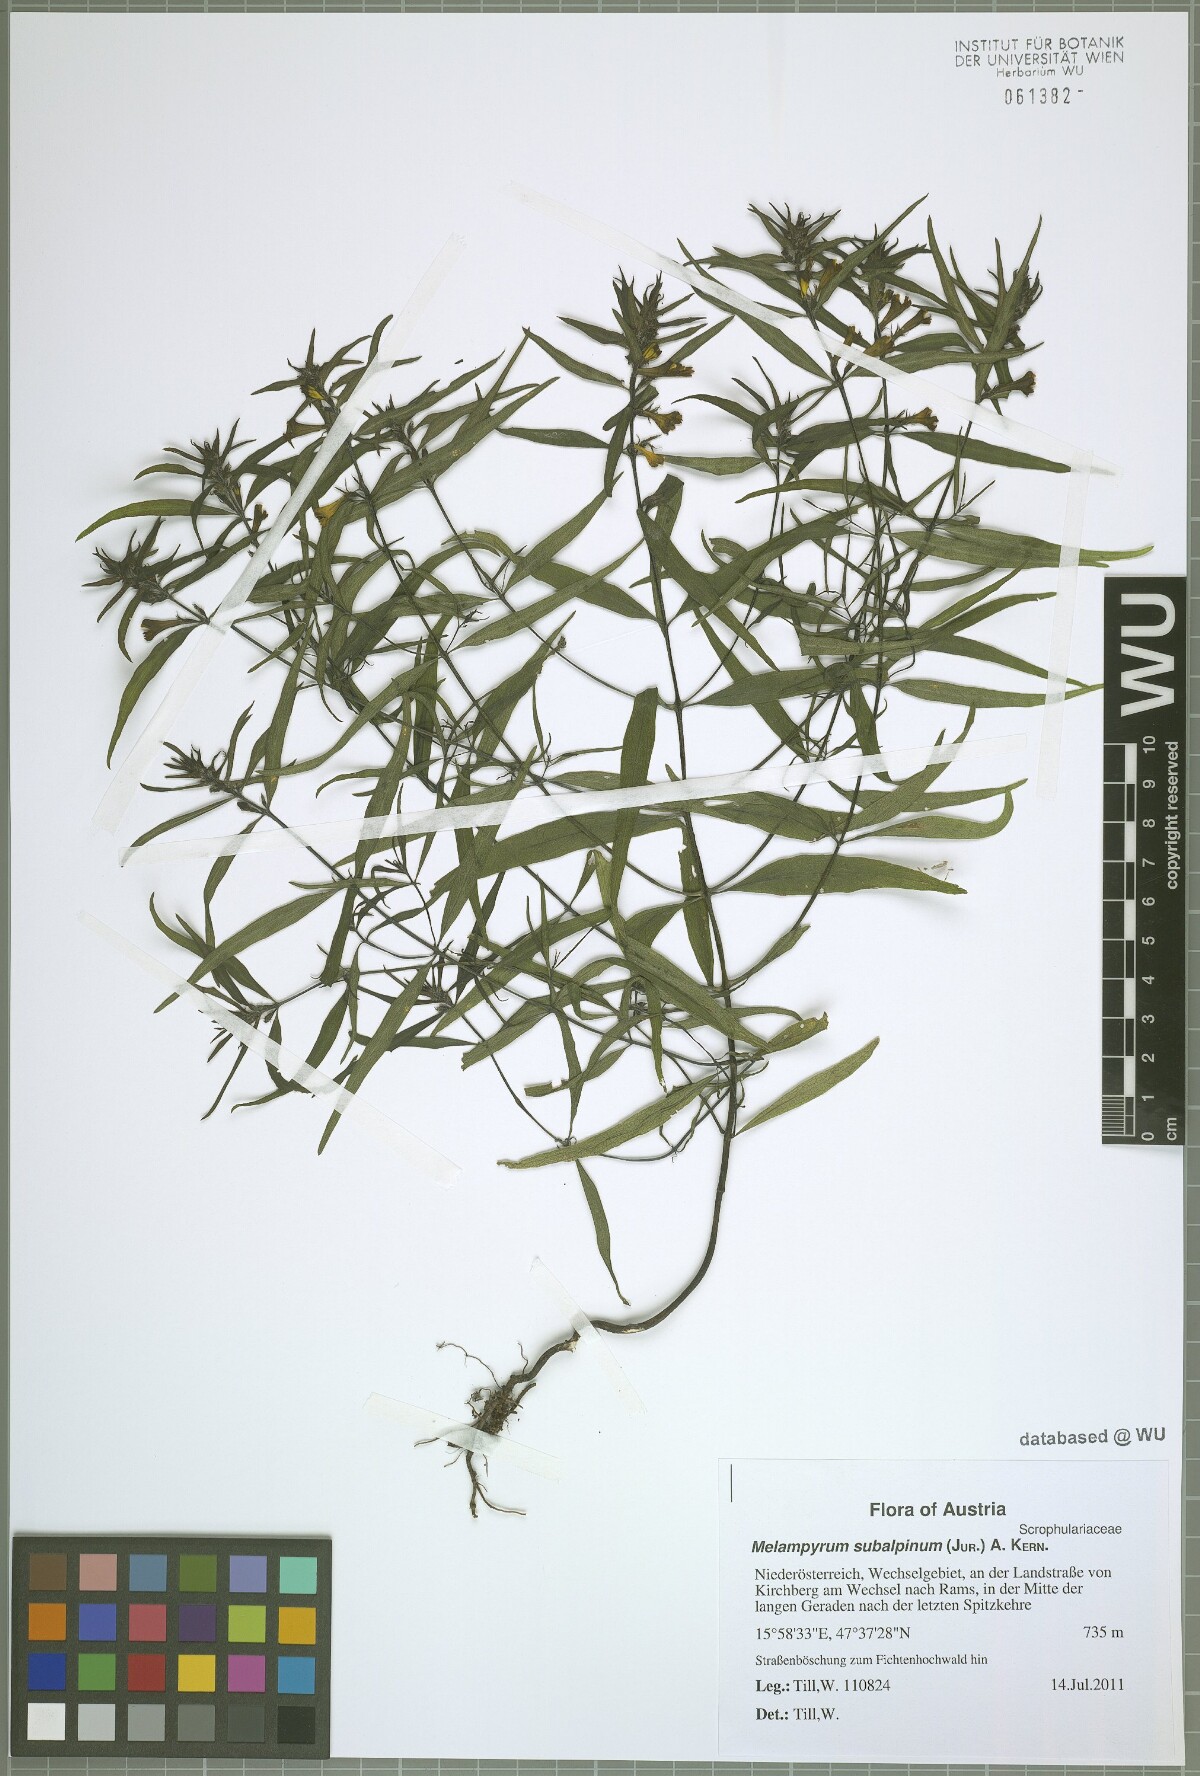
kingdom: Plantae
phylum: Tracheophyta
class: Magnoliopsida
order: Lamiales
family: Orobanchaceae
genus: Melampyrum
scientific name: Melampyrum subalpinum
